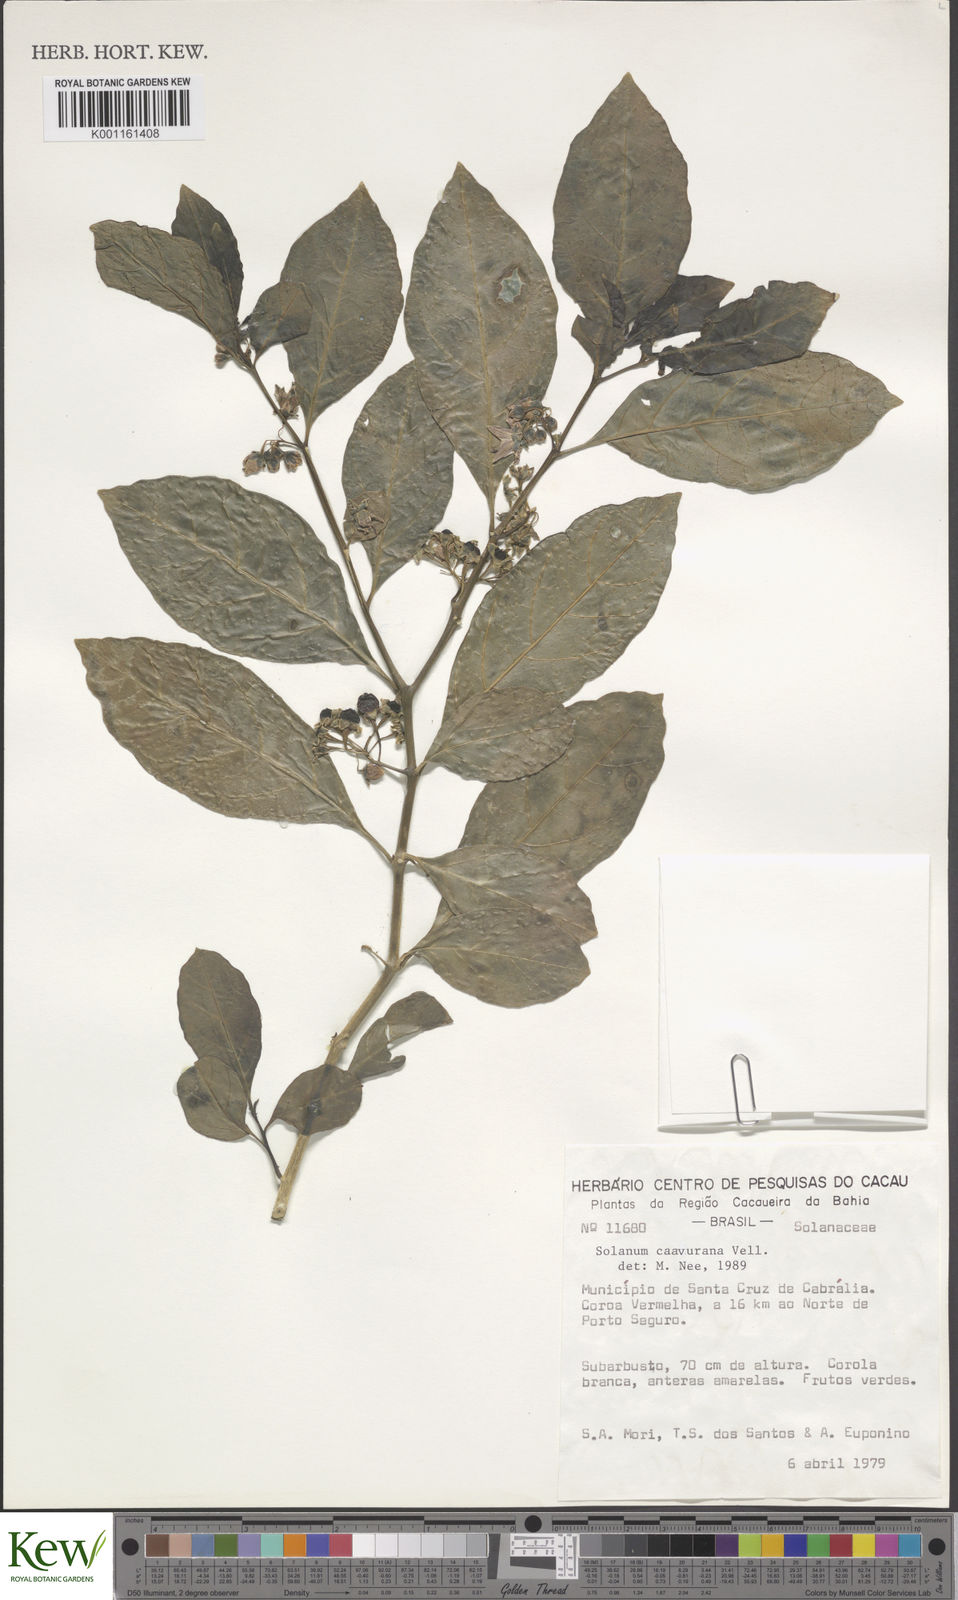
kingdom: Plantae
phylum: Tracheophyta
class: Magnoliopsida
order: Solanales
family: Solanaceae
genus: Solanum
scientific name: Solanum caavurana
